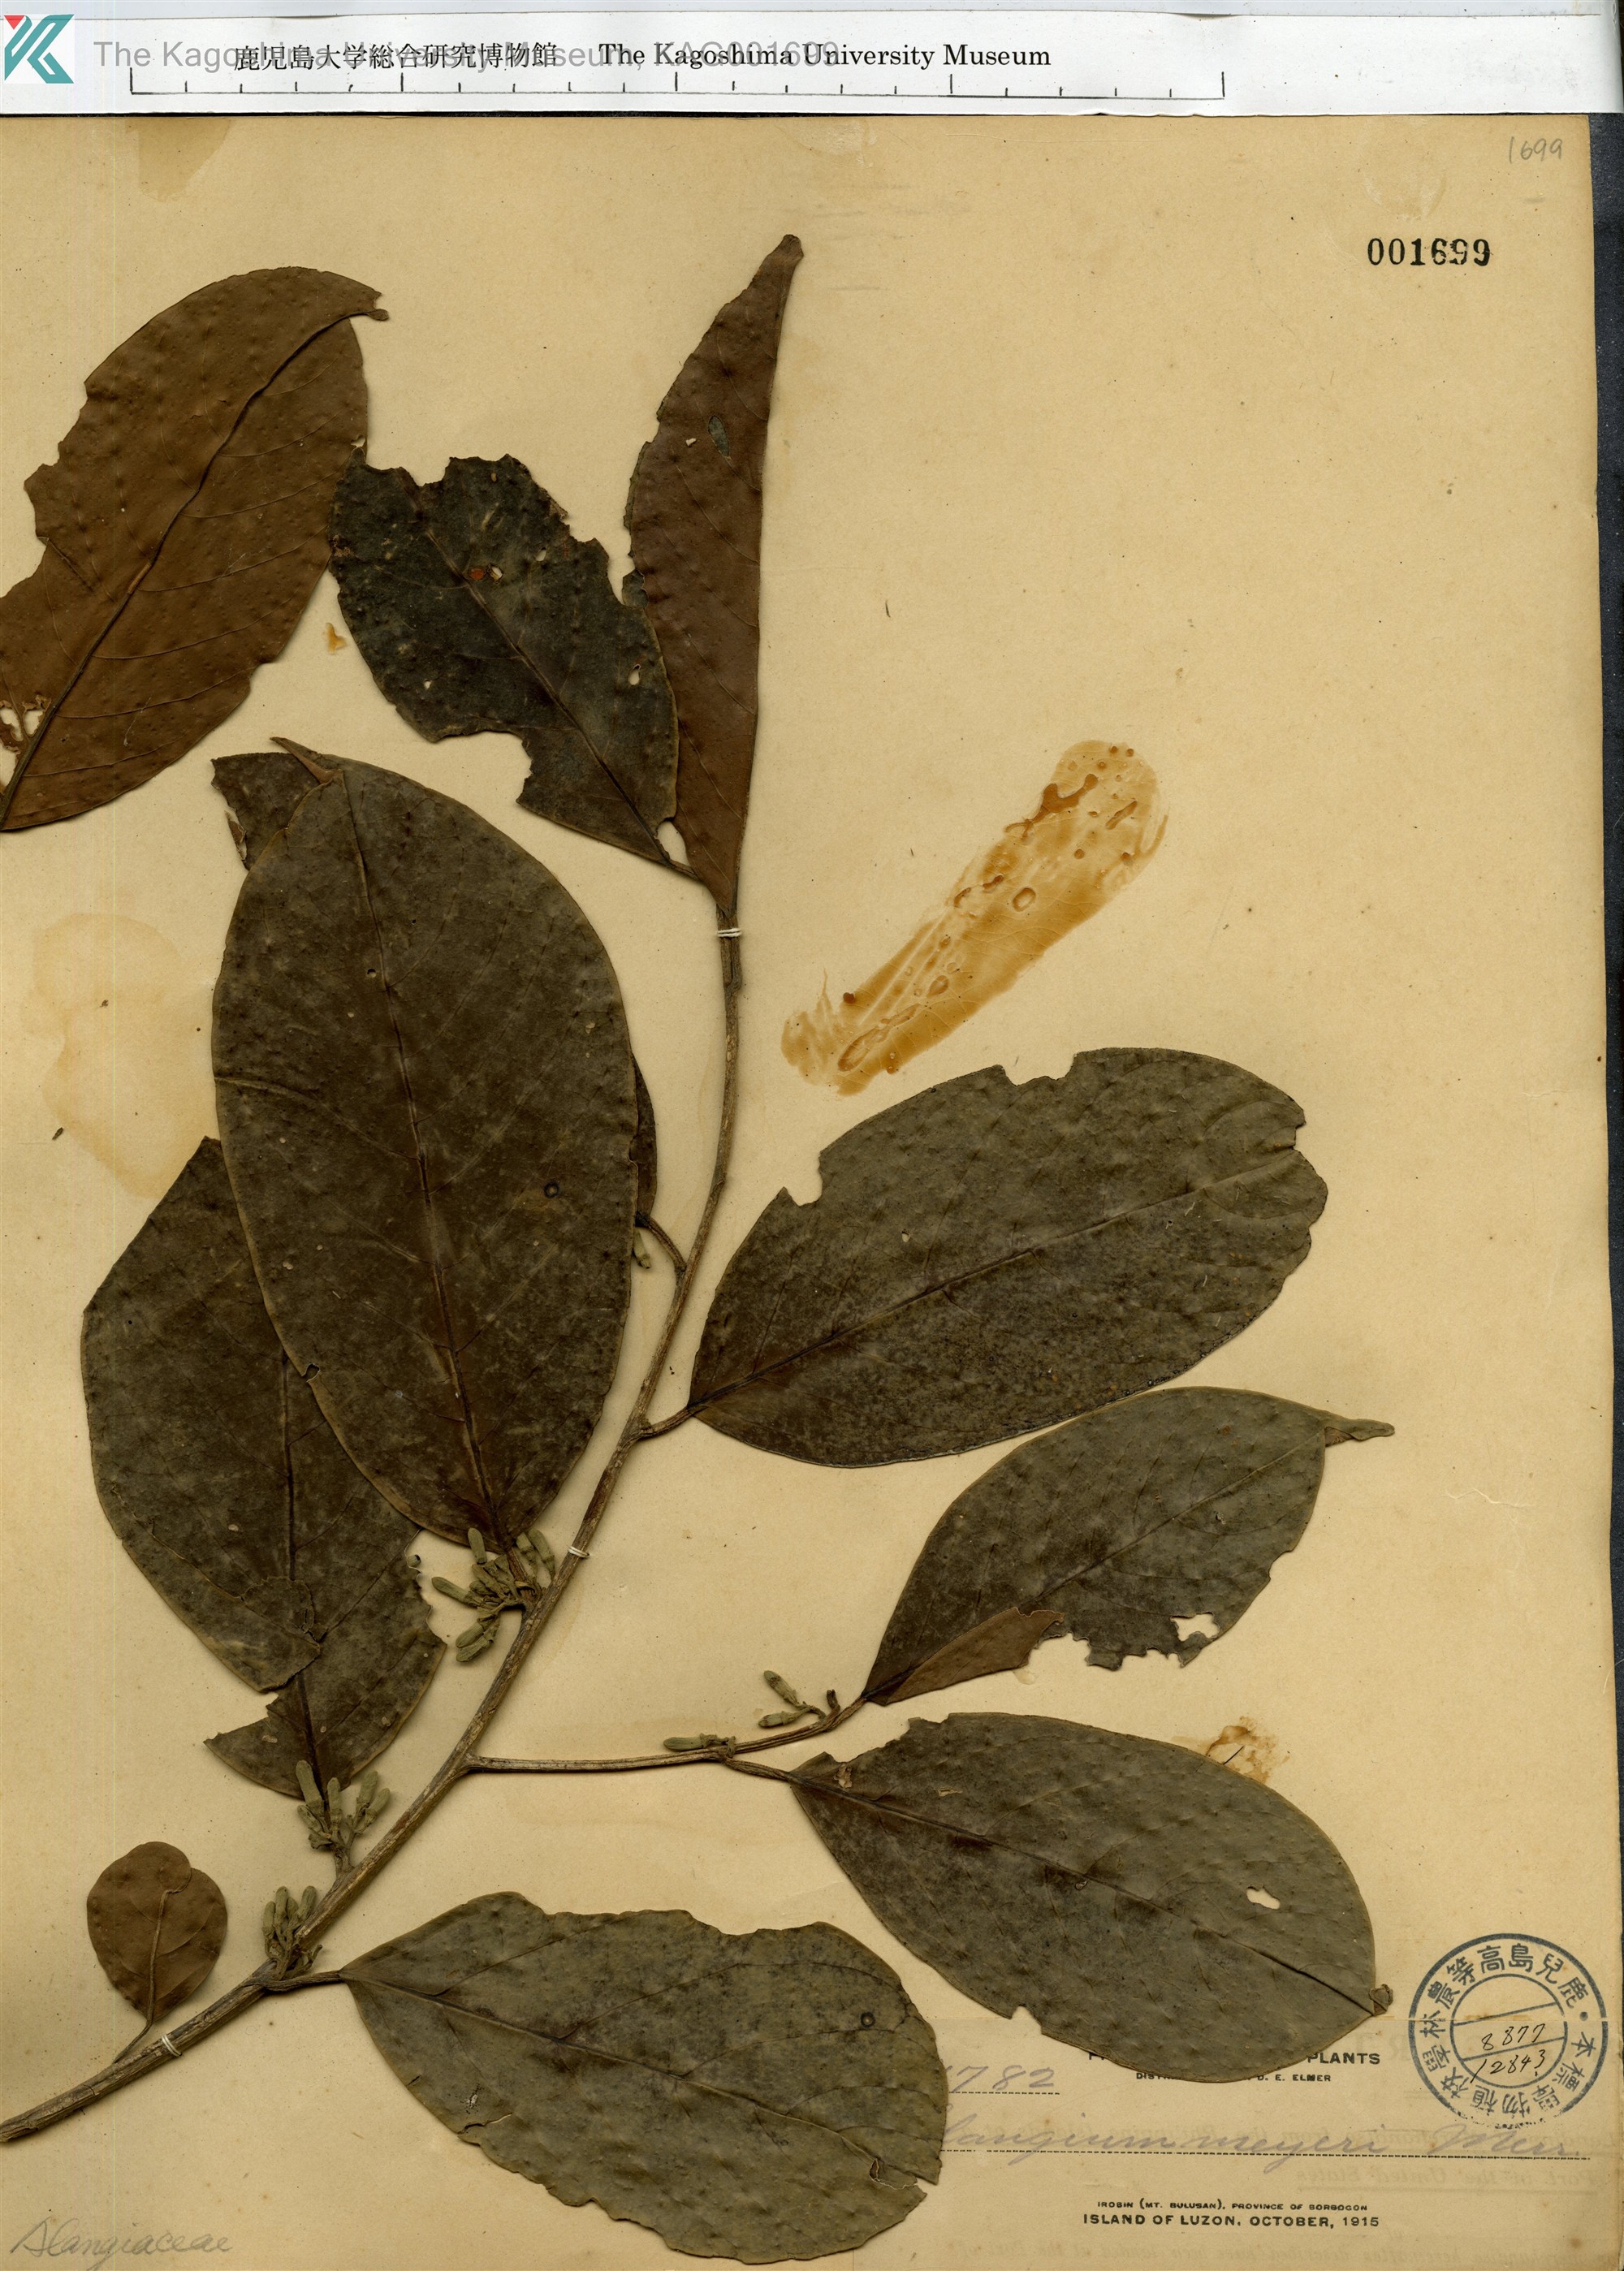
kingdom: Plantae
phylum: Tracheophyta
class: Magnoliopsida
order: Cornales
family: Cornaceae
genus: Alangium
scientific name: Alangium meyeri
